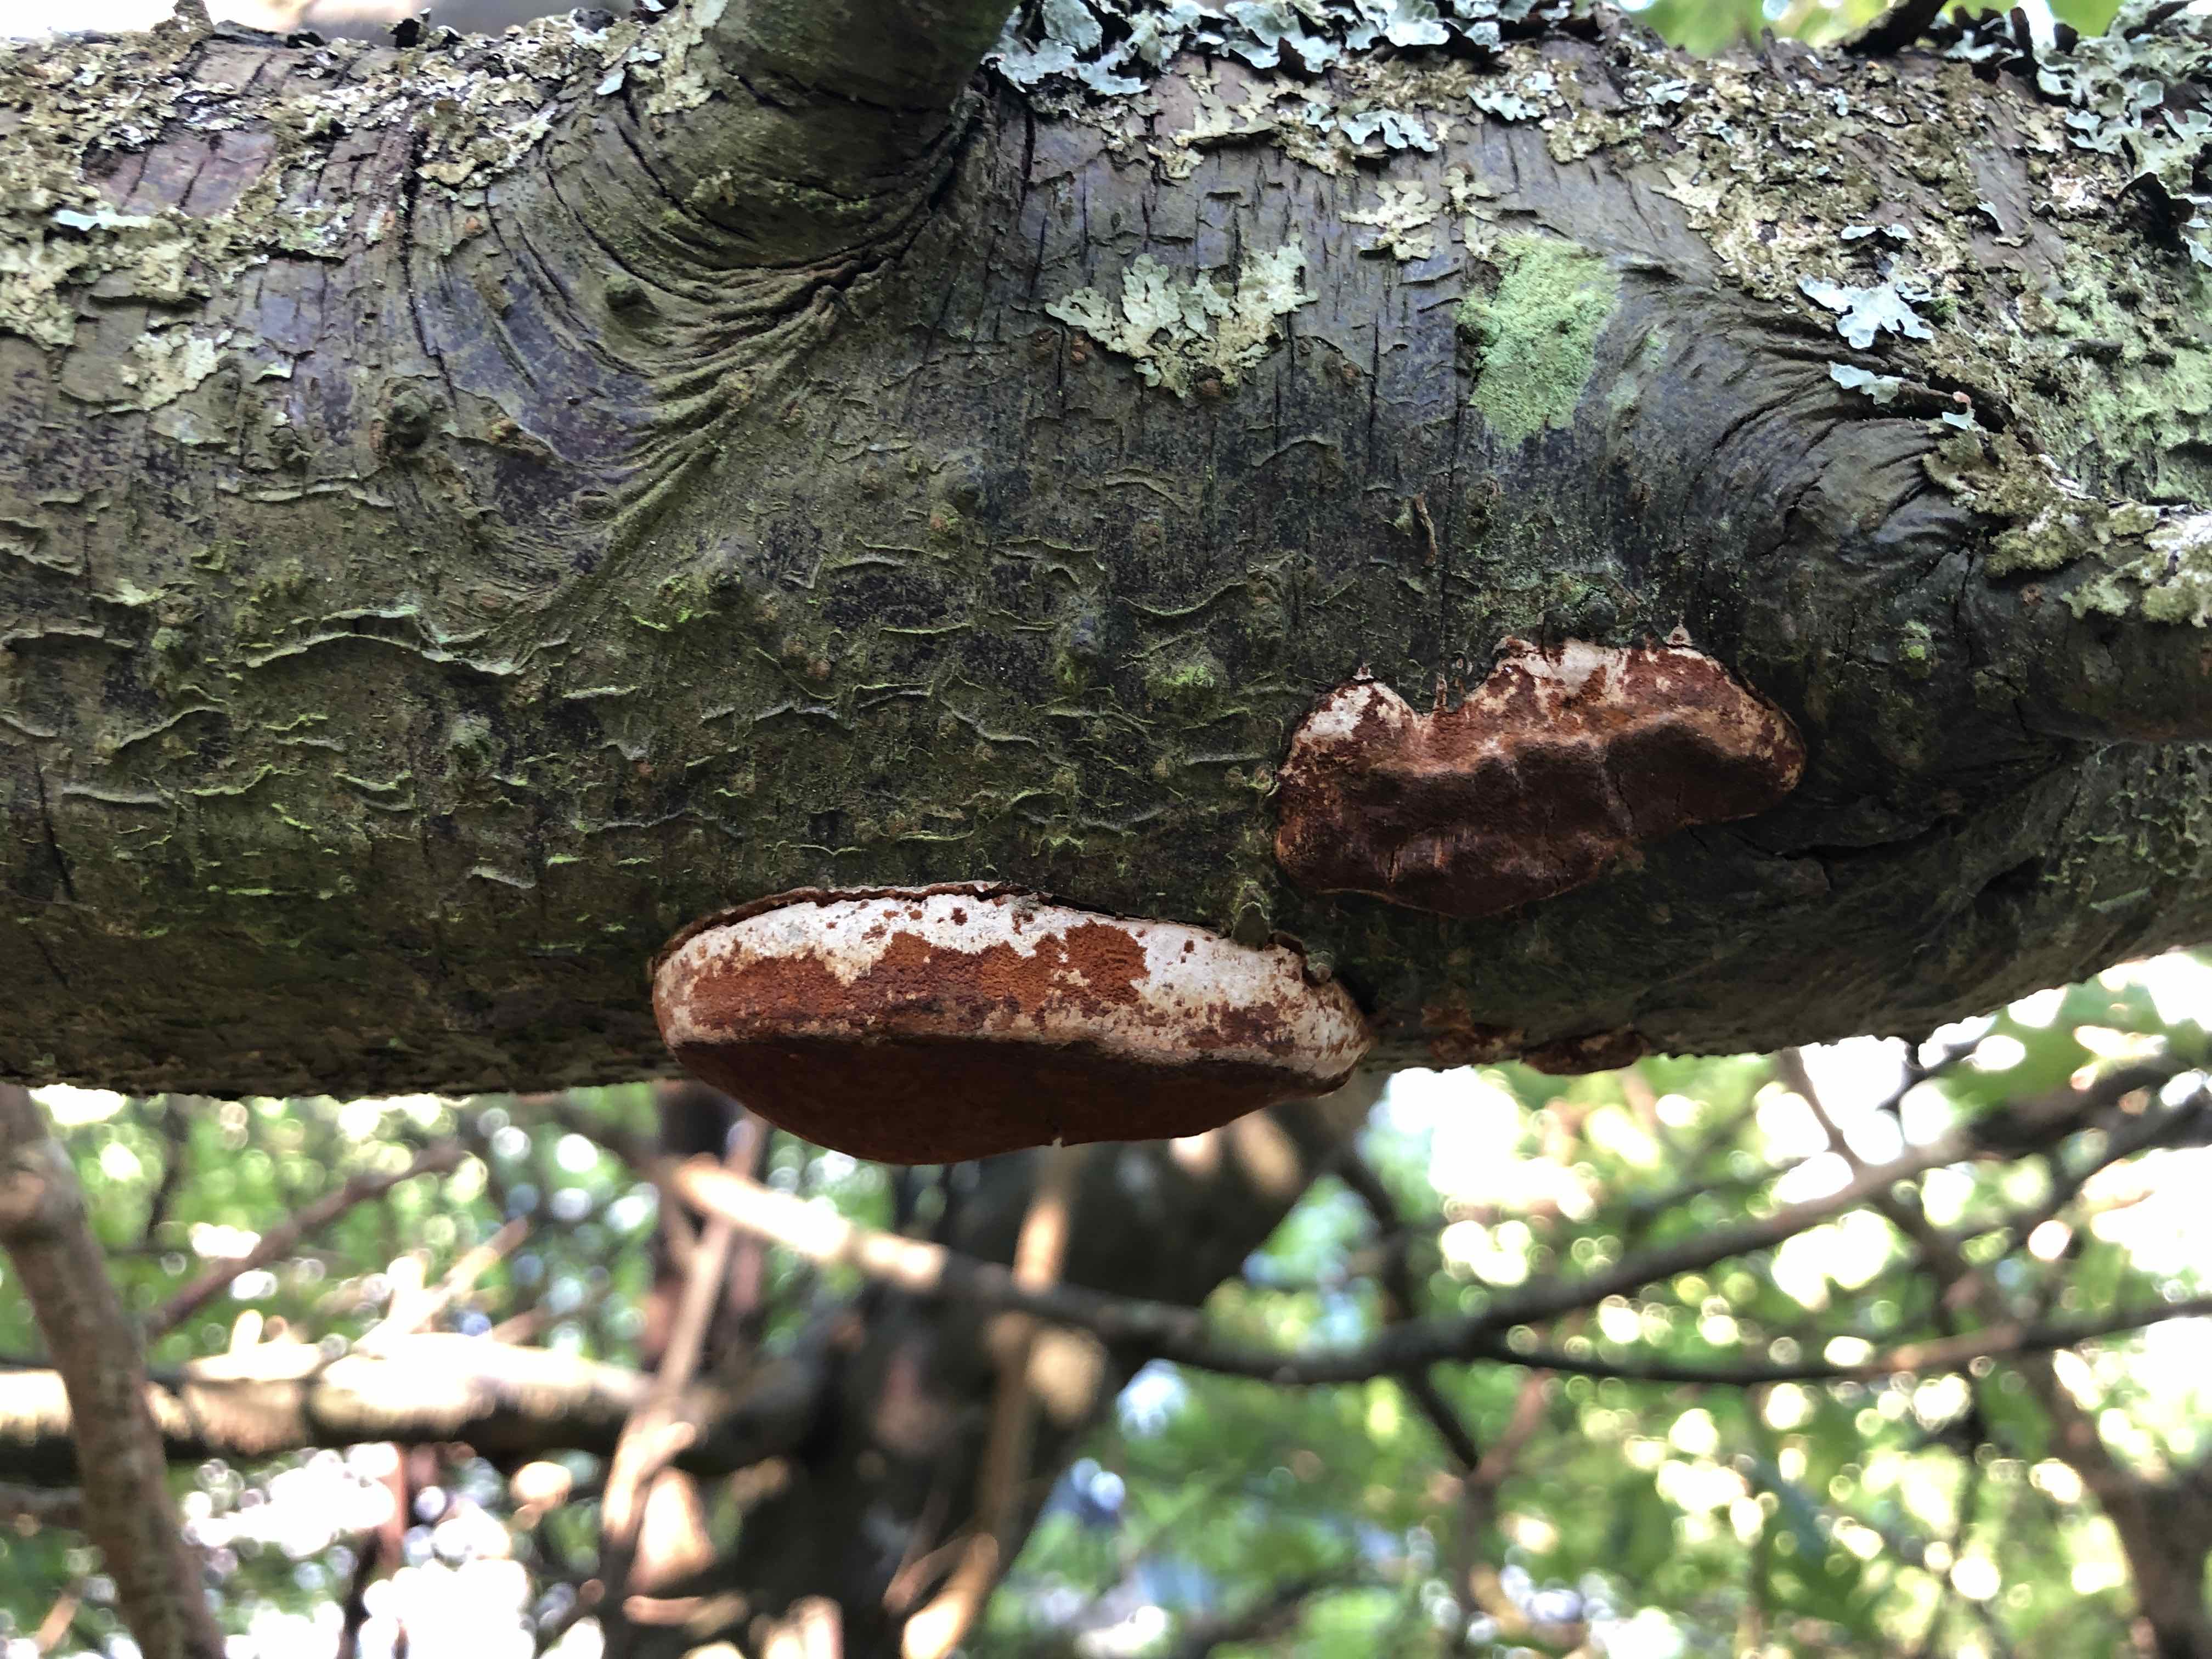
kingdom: Fungi
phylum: Basidiomycota
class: Agaricomycetes
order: Hymenochaetales
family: Hymenochaetaceae
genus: Phellinus
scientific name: Phellinus pomaceus
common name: blomme-ildporesvamp
